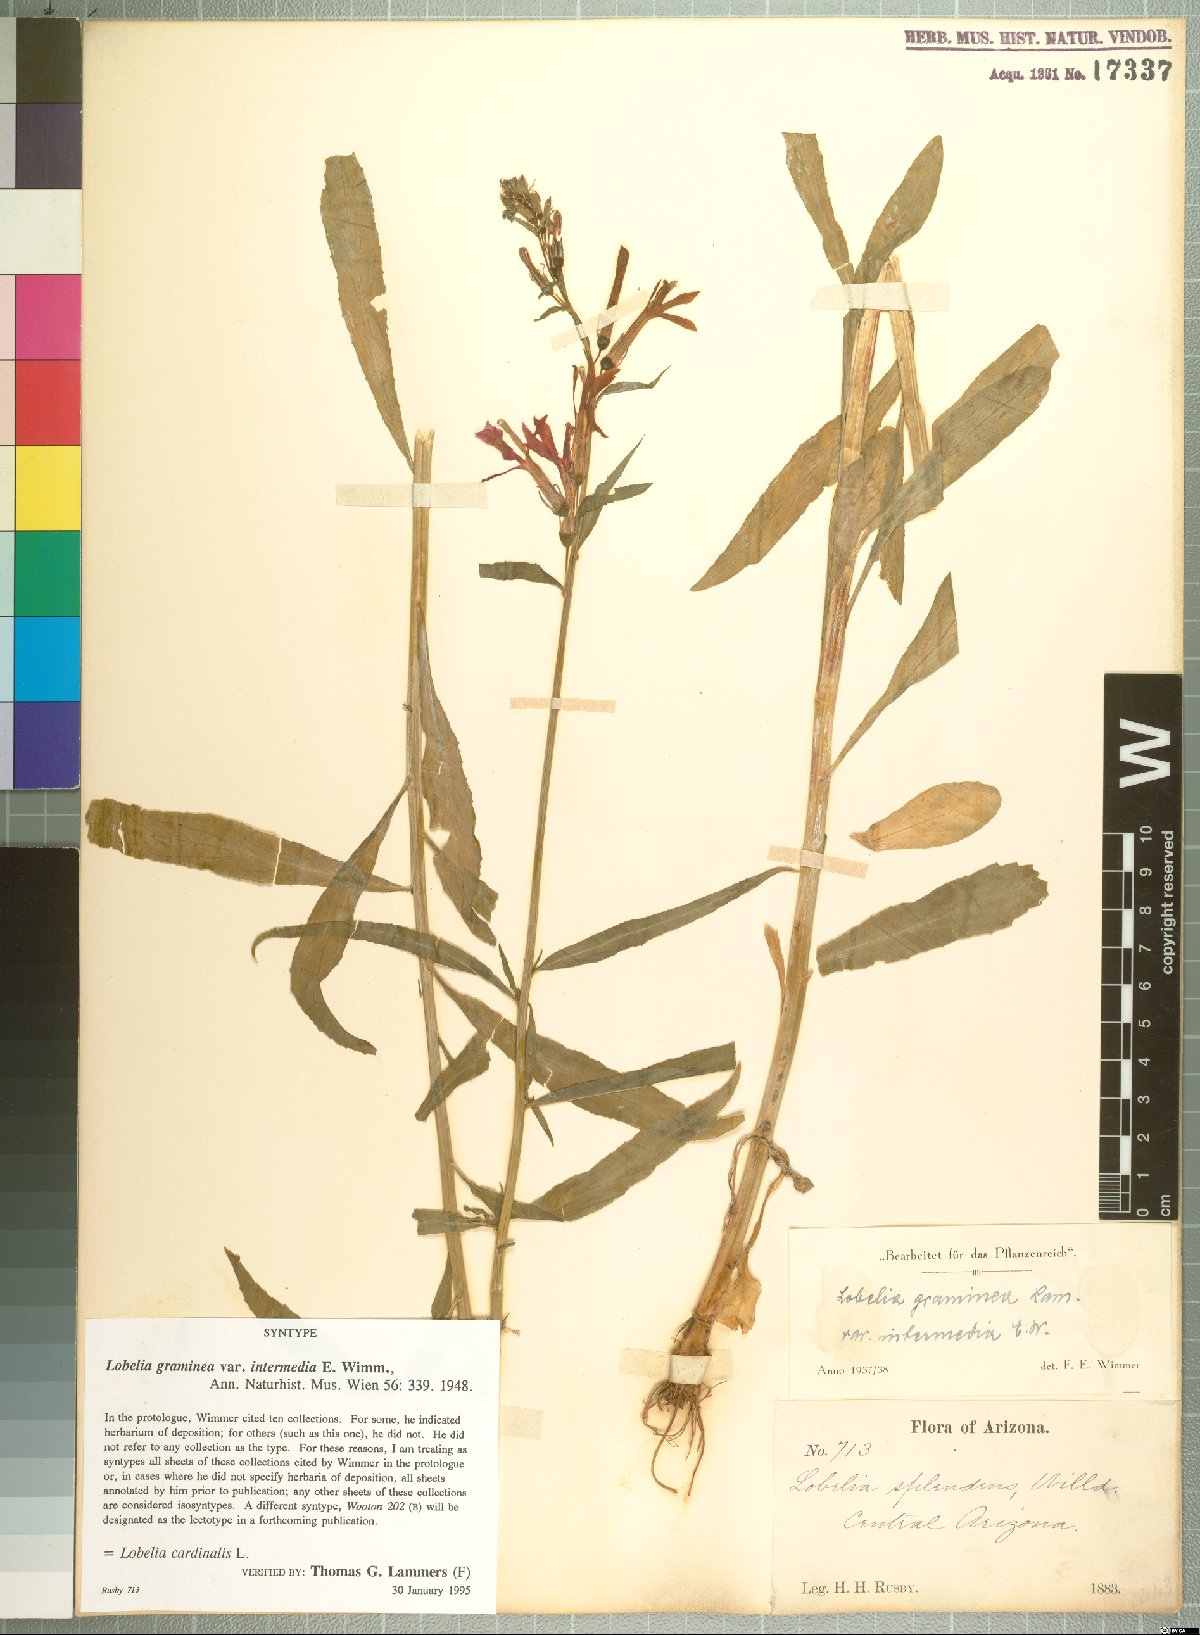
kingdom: Plantae
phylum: Tracheophyta
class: Magnoliopsida
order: Asterales
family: Campanulaceae
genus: Lobelia
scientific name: Lobelia cardinalis
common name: Cardinal flower
